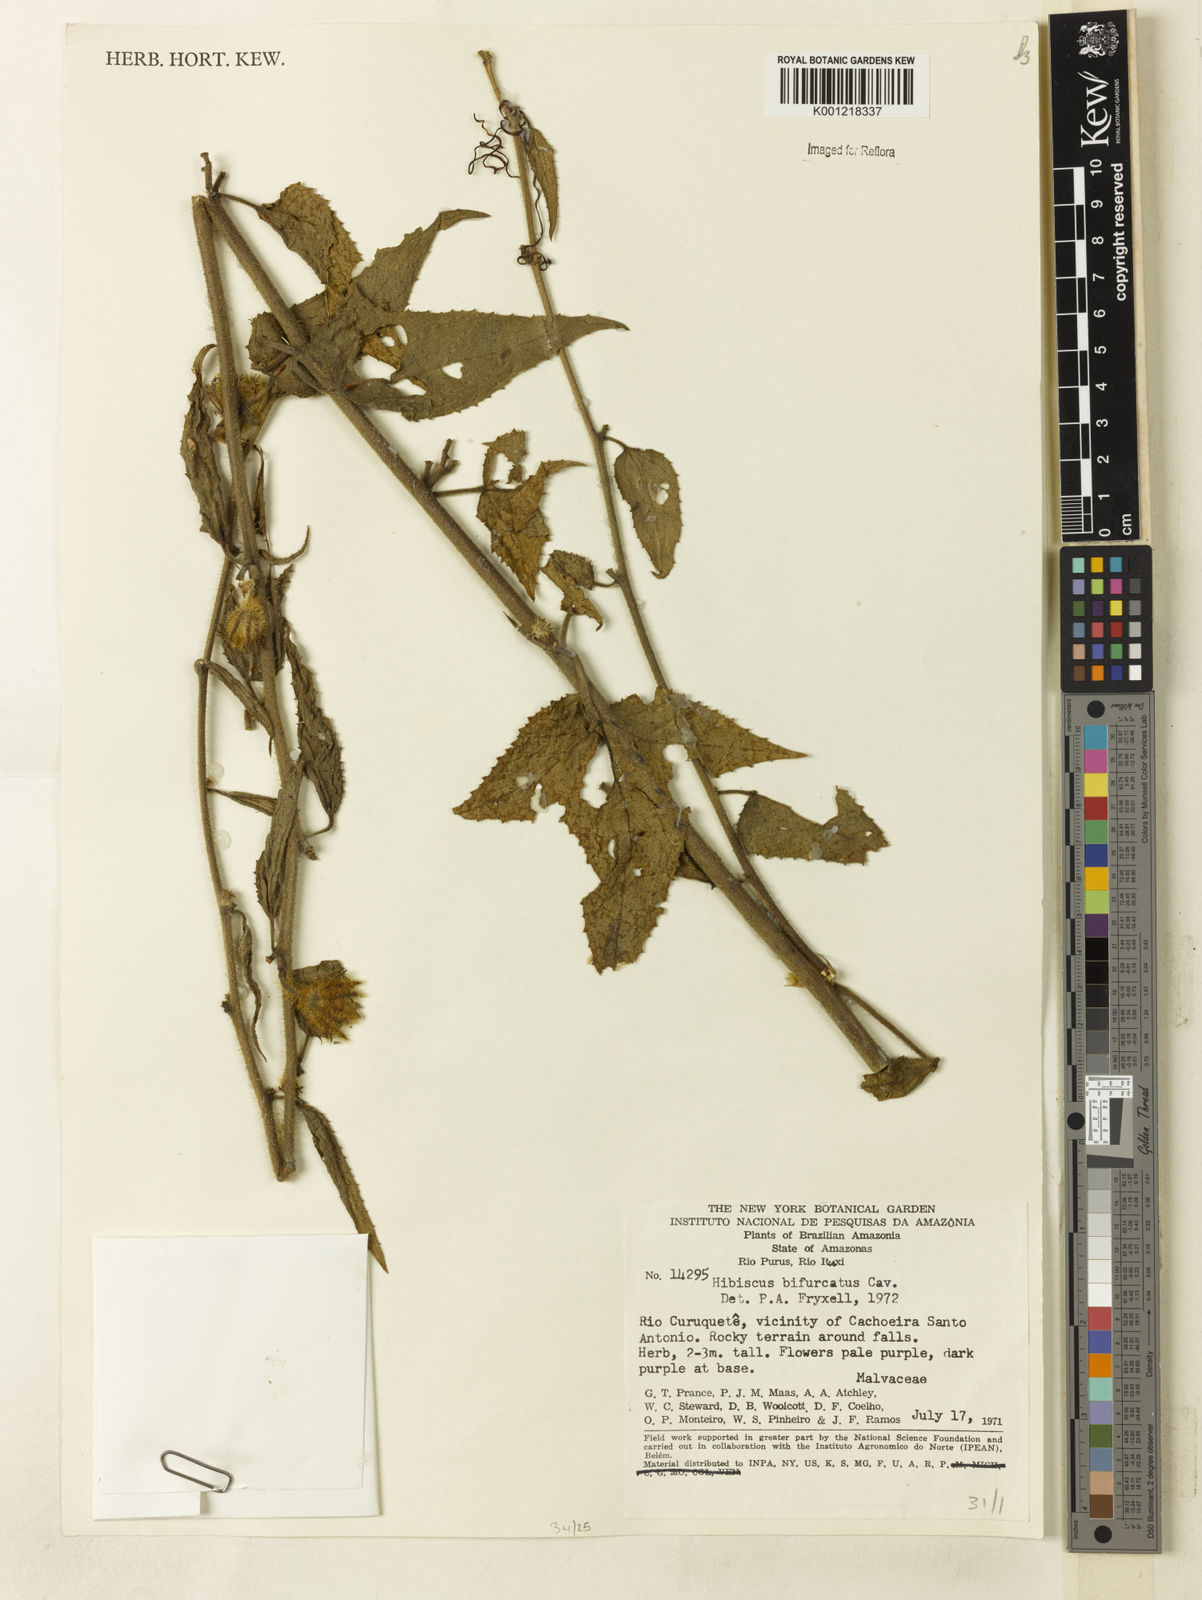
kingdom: Plantae
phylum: Tracheophyta
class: Magnoliopsida
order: Malvales
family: Malvaceae
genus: Hibiscus
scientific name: Hibiscus bifurcatus
